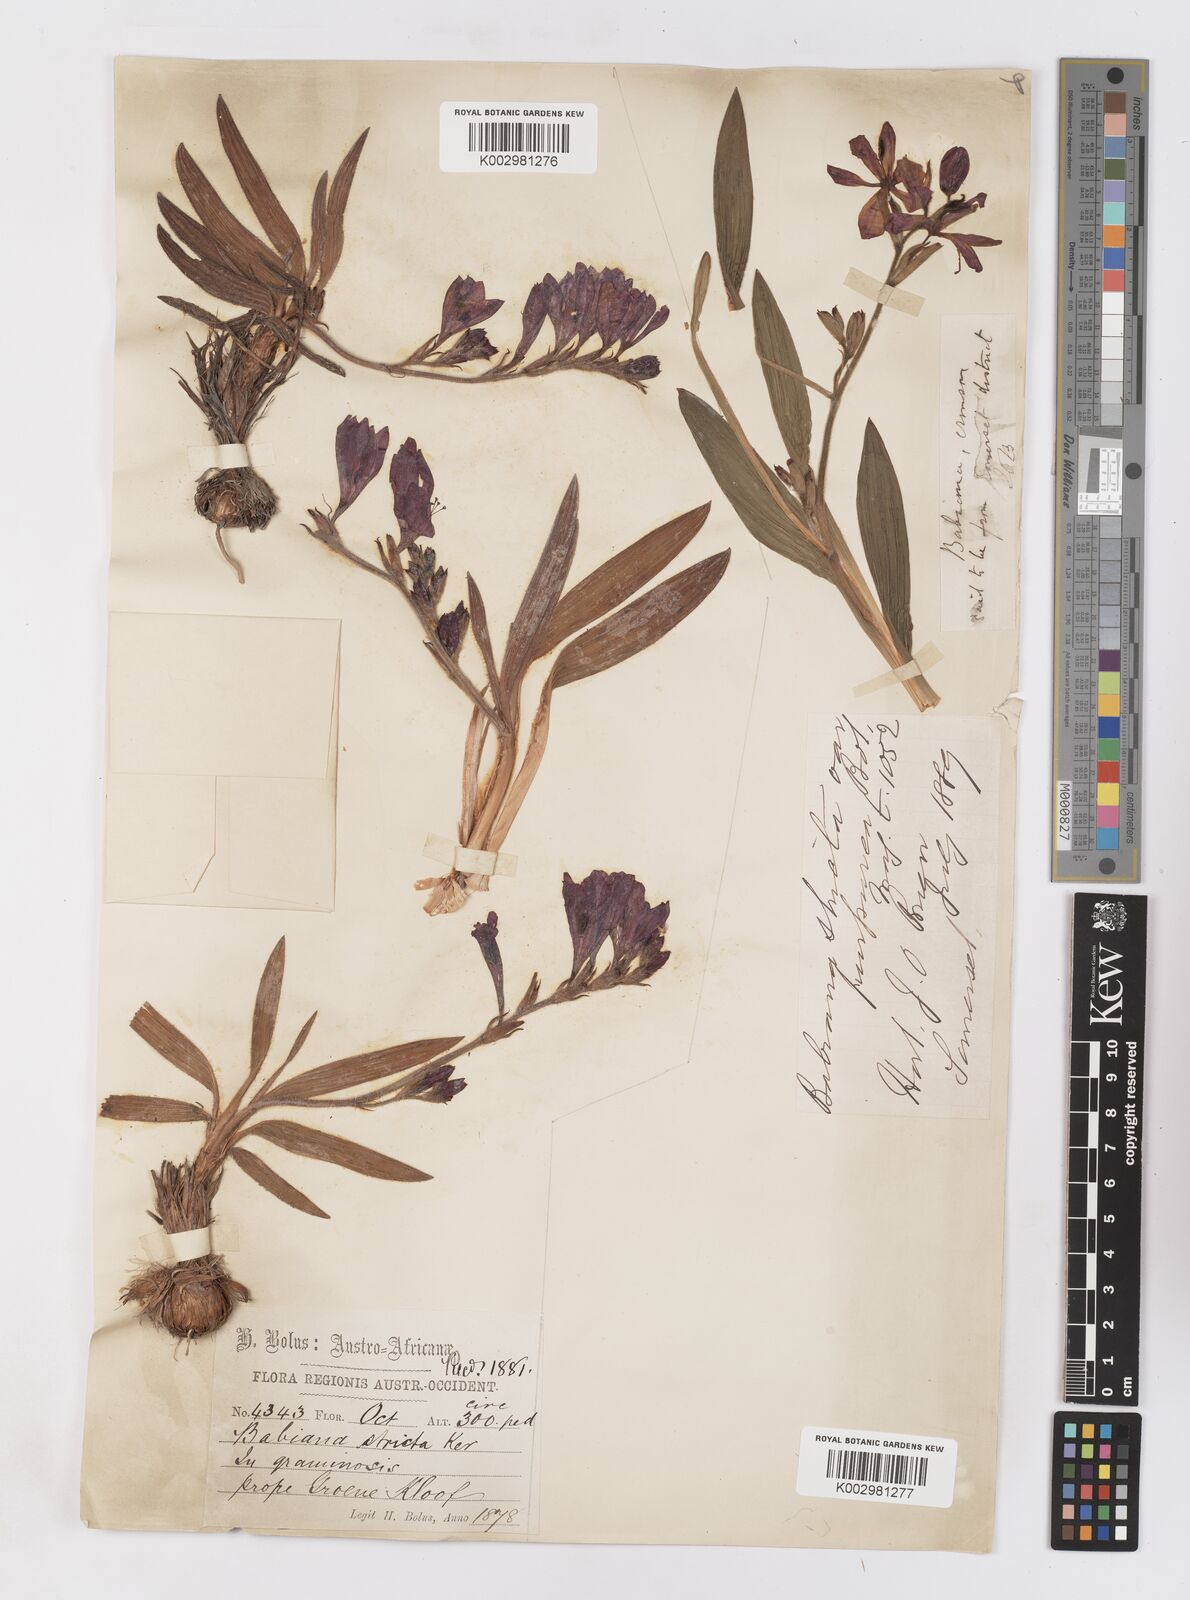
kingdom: Plantae
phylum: Tracheophyta
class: Liliopsida
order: Asparagales
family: Iridaceae
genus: Babiana
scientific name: Babiana regia
